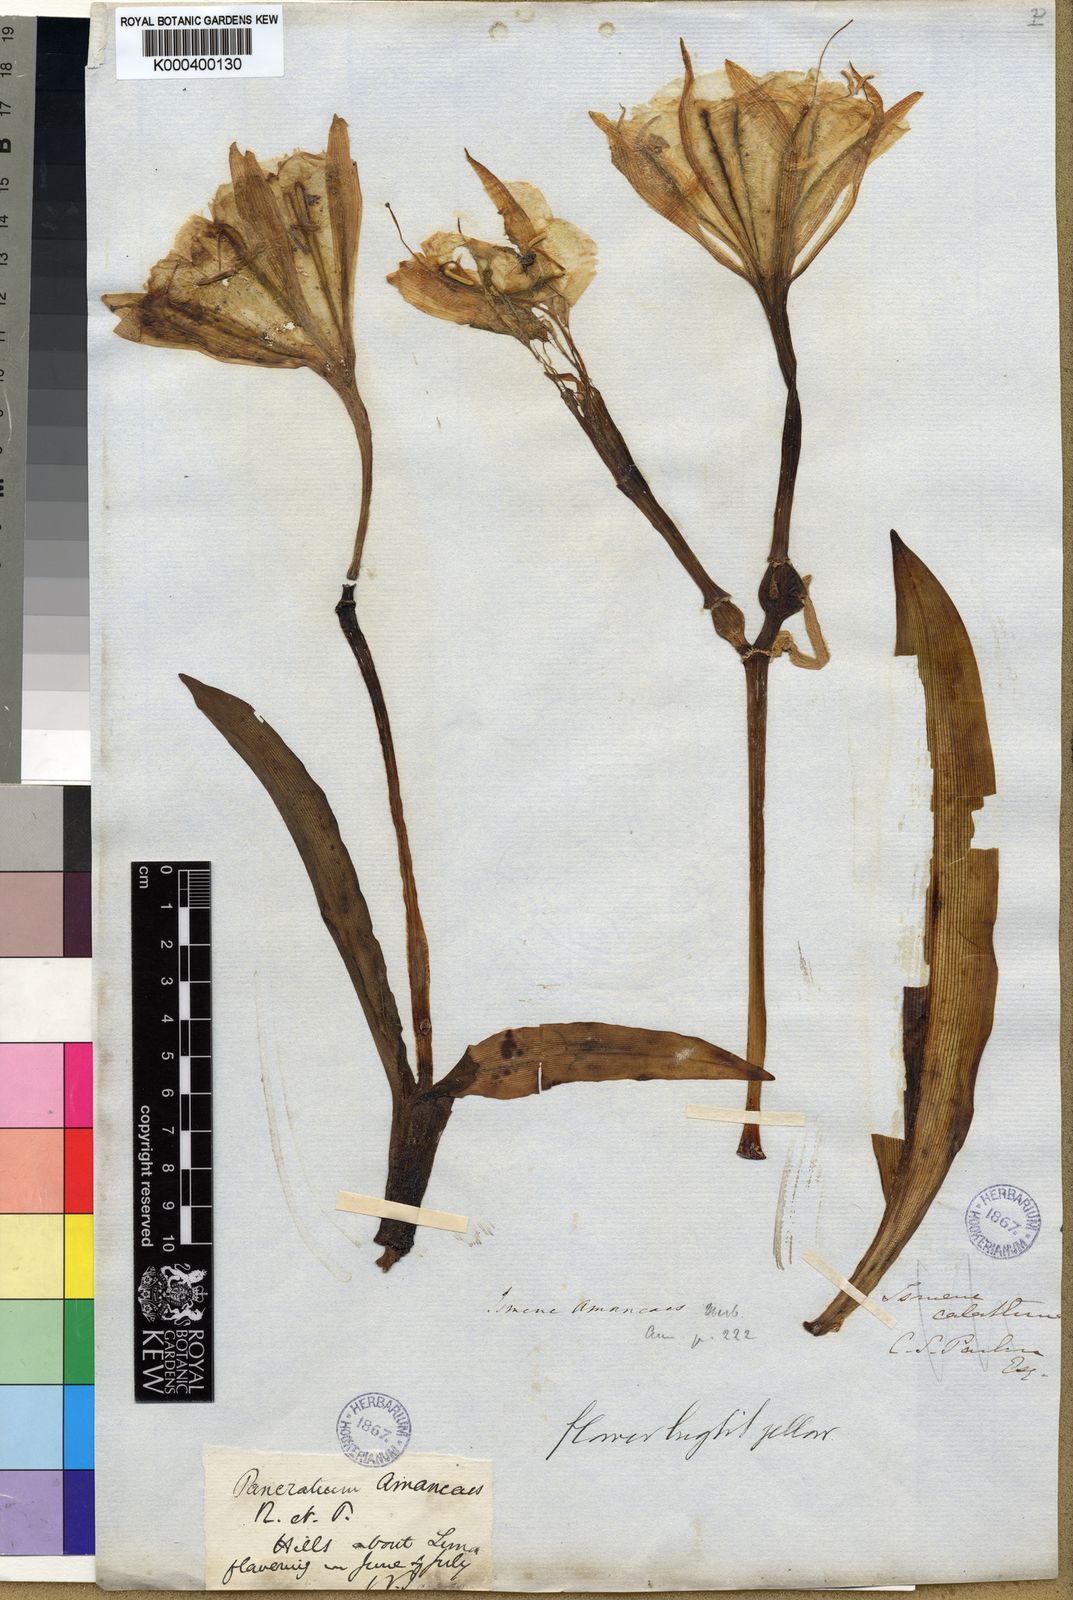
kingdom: Plantae
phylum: Tracheophyta
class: Liliopsida
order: Asparagales
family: Amaryllidaceae
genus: Ismene
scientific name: Ismene amancaes
